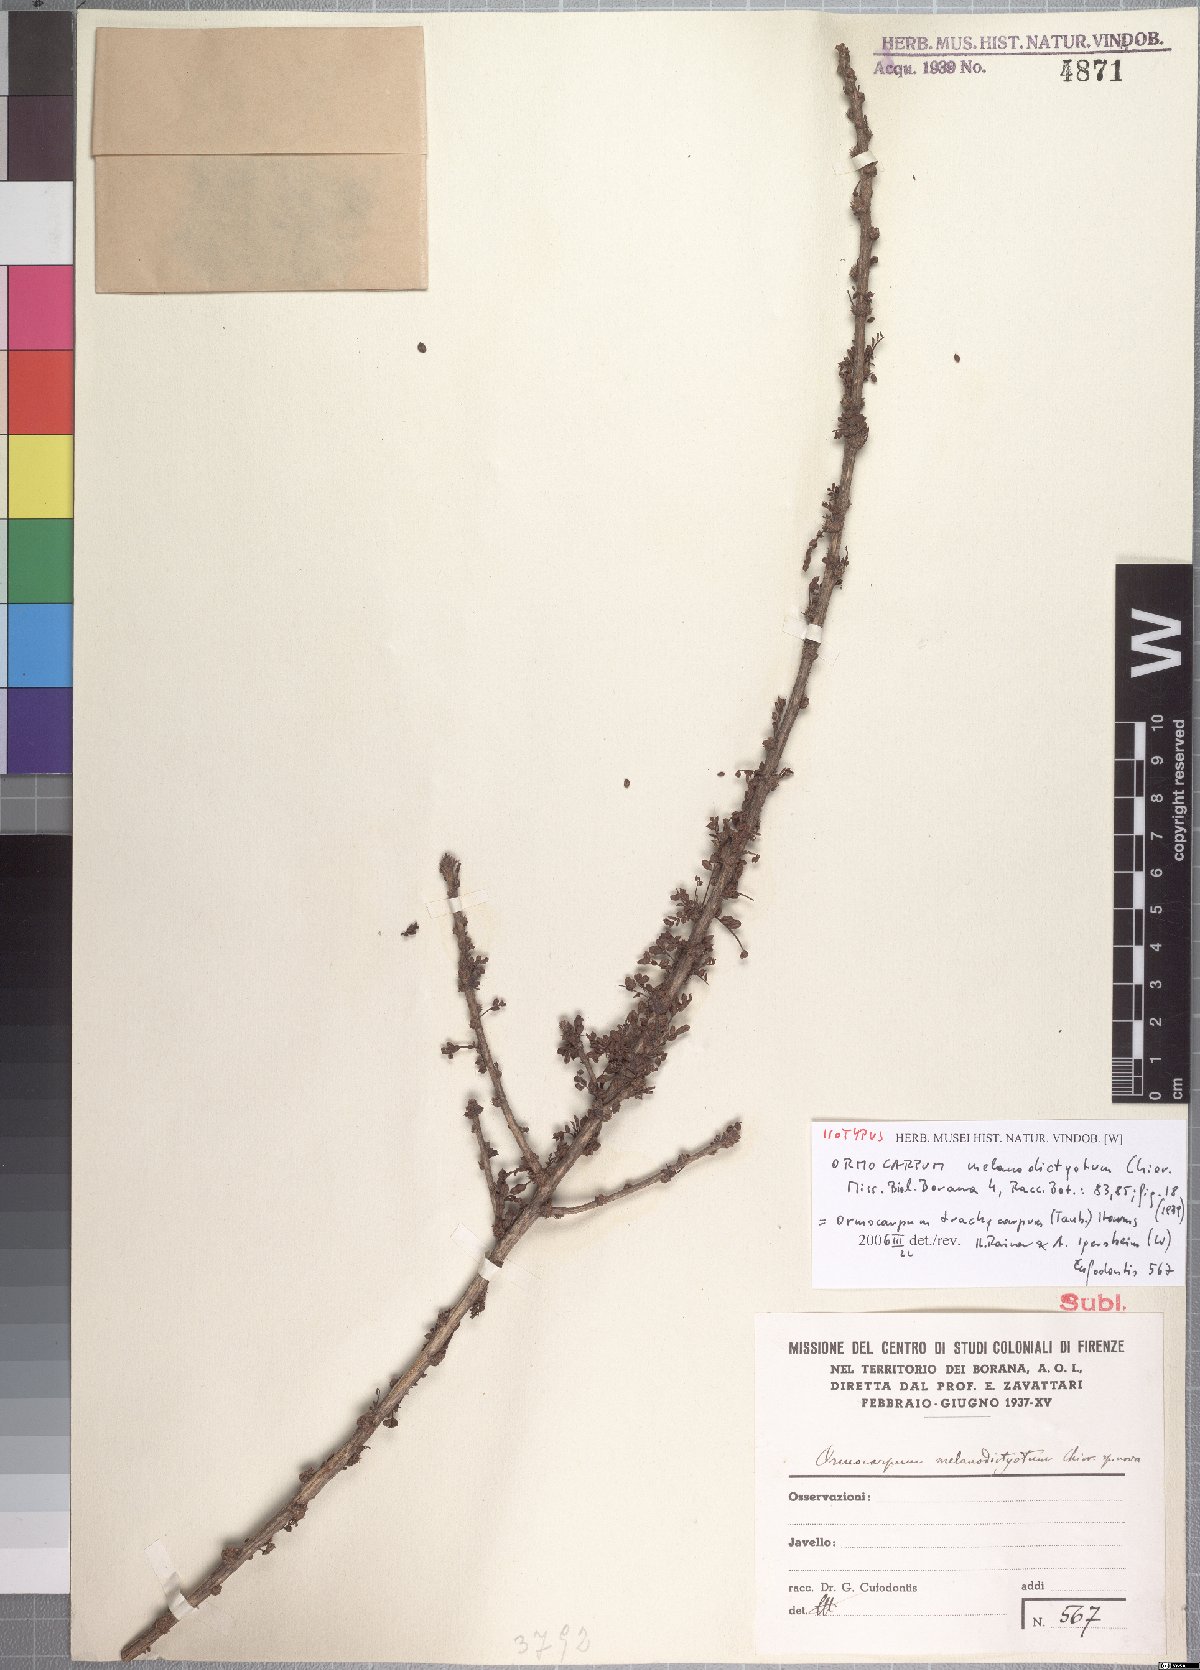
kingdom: Plantae
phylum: Tracheophyta
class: Magnoliopsida
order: Fabales
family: Fabaceae
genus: Ormocarpum
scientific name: Ormocarpum trachycarpum
